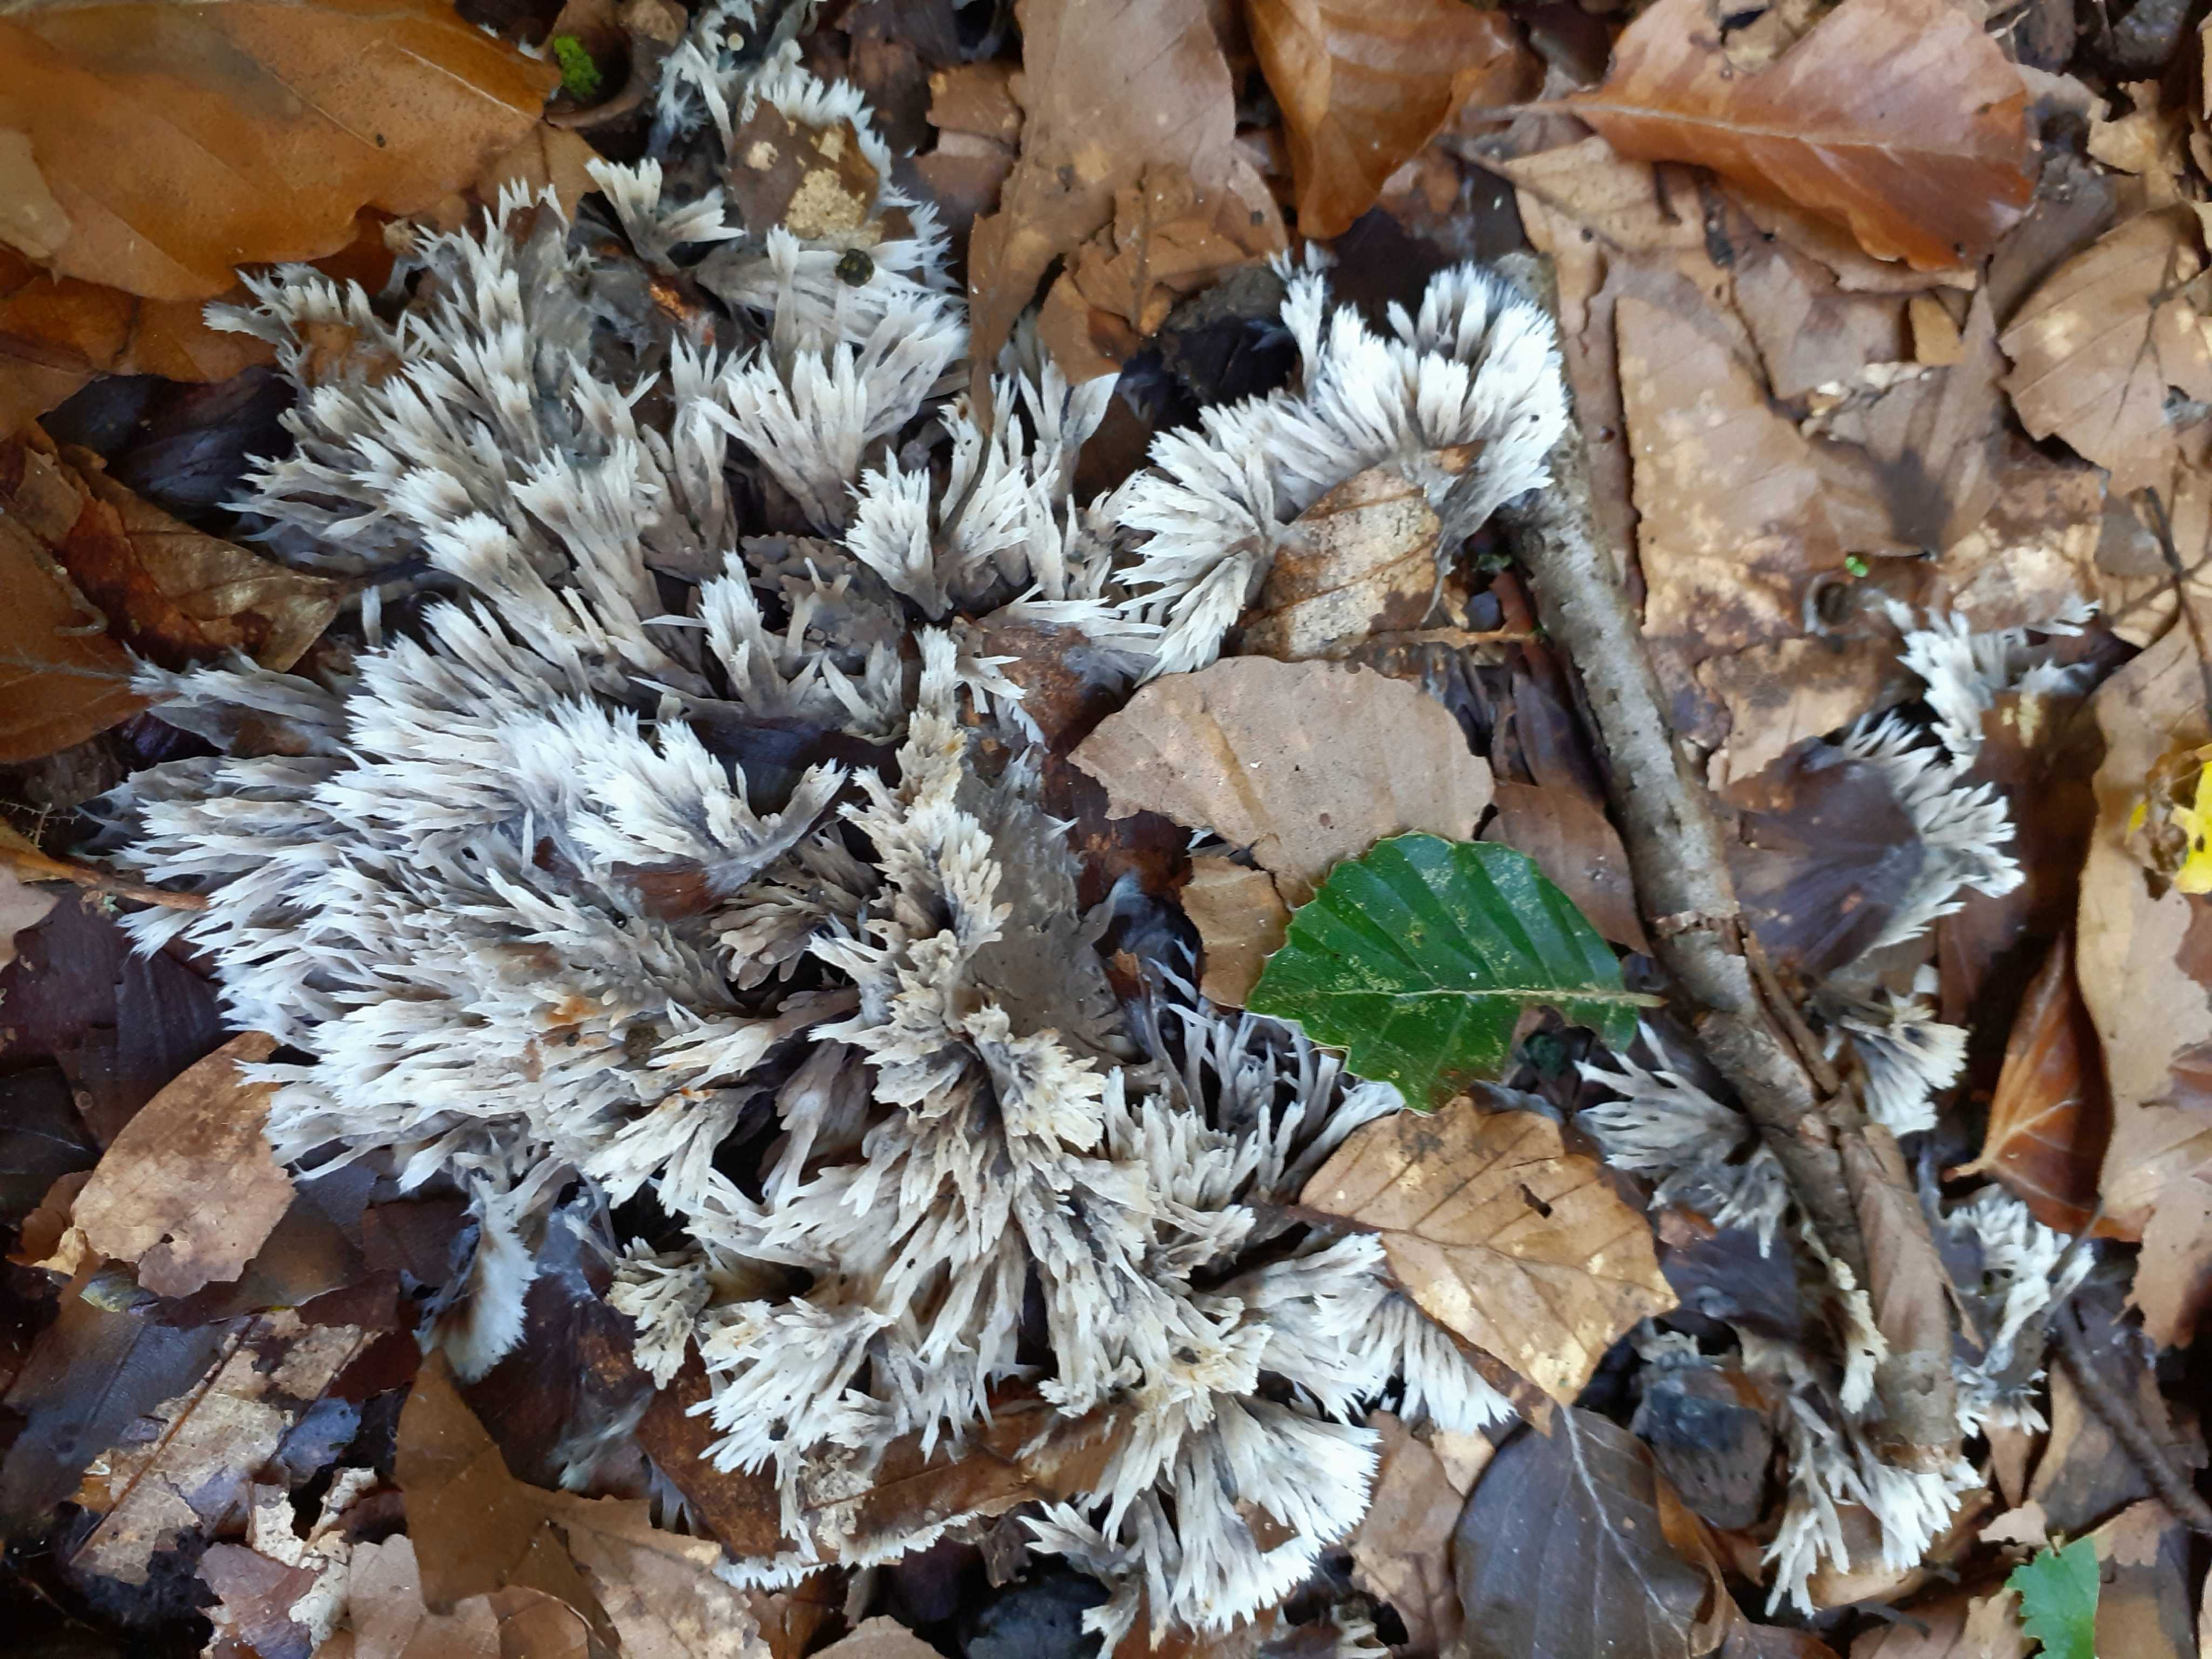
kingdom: Fungi
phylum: Basidiomycota
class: Agaricomycetes
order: Thelephorales
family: Thelephoraceae
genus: Thelephora
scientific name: Thelephora penicillata
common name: fladtrådt frynsesvamp
